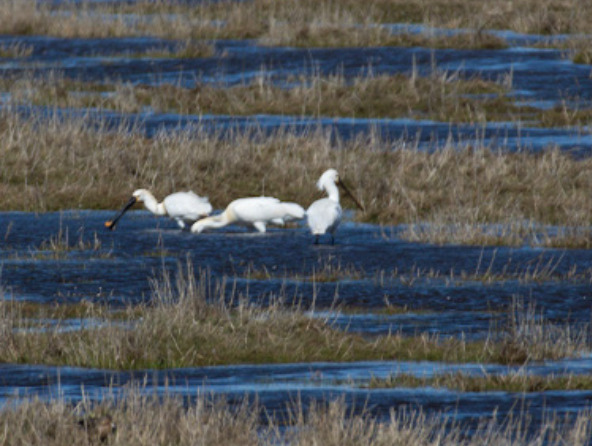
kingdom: Animalia
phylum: Chordata
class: Aves
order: Pelecaniformes
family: Threskiornithidae
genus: Platalea
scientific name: Platalea leucorodia
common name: Skestork
